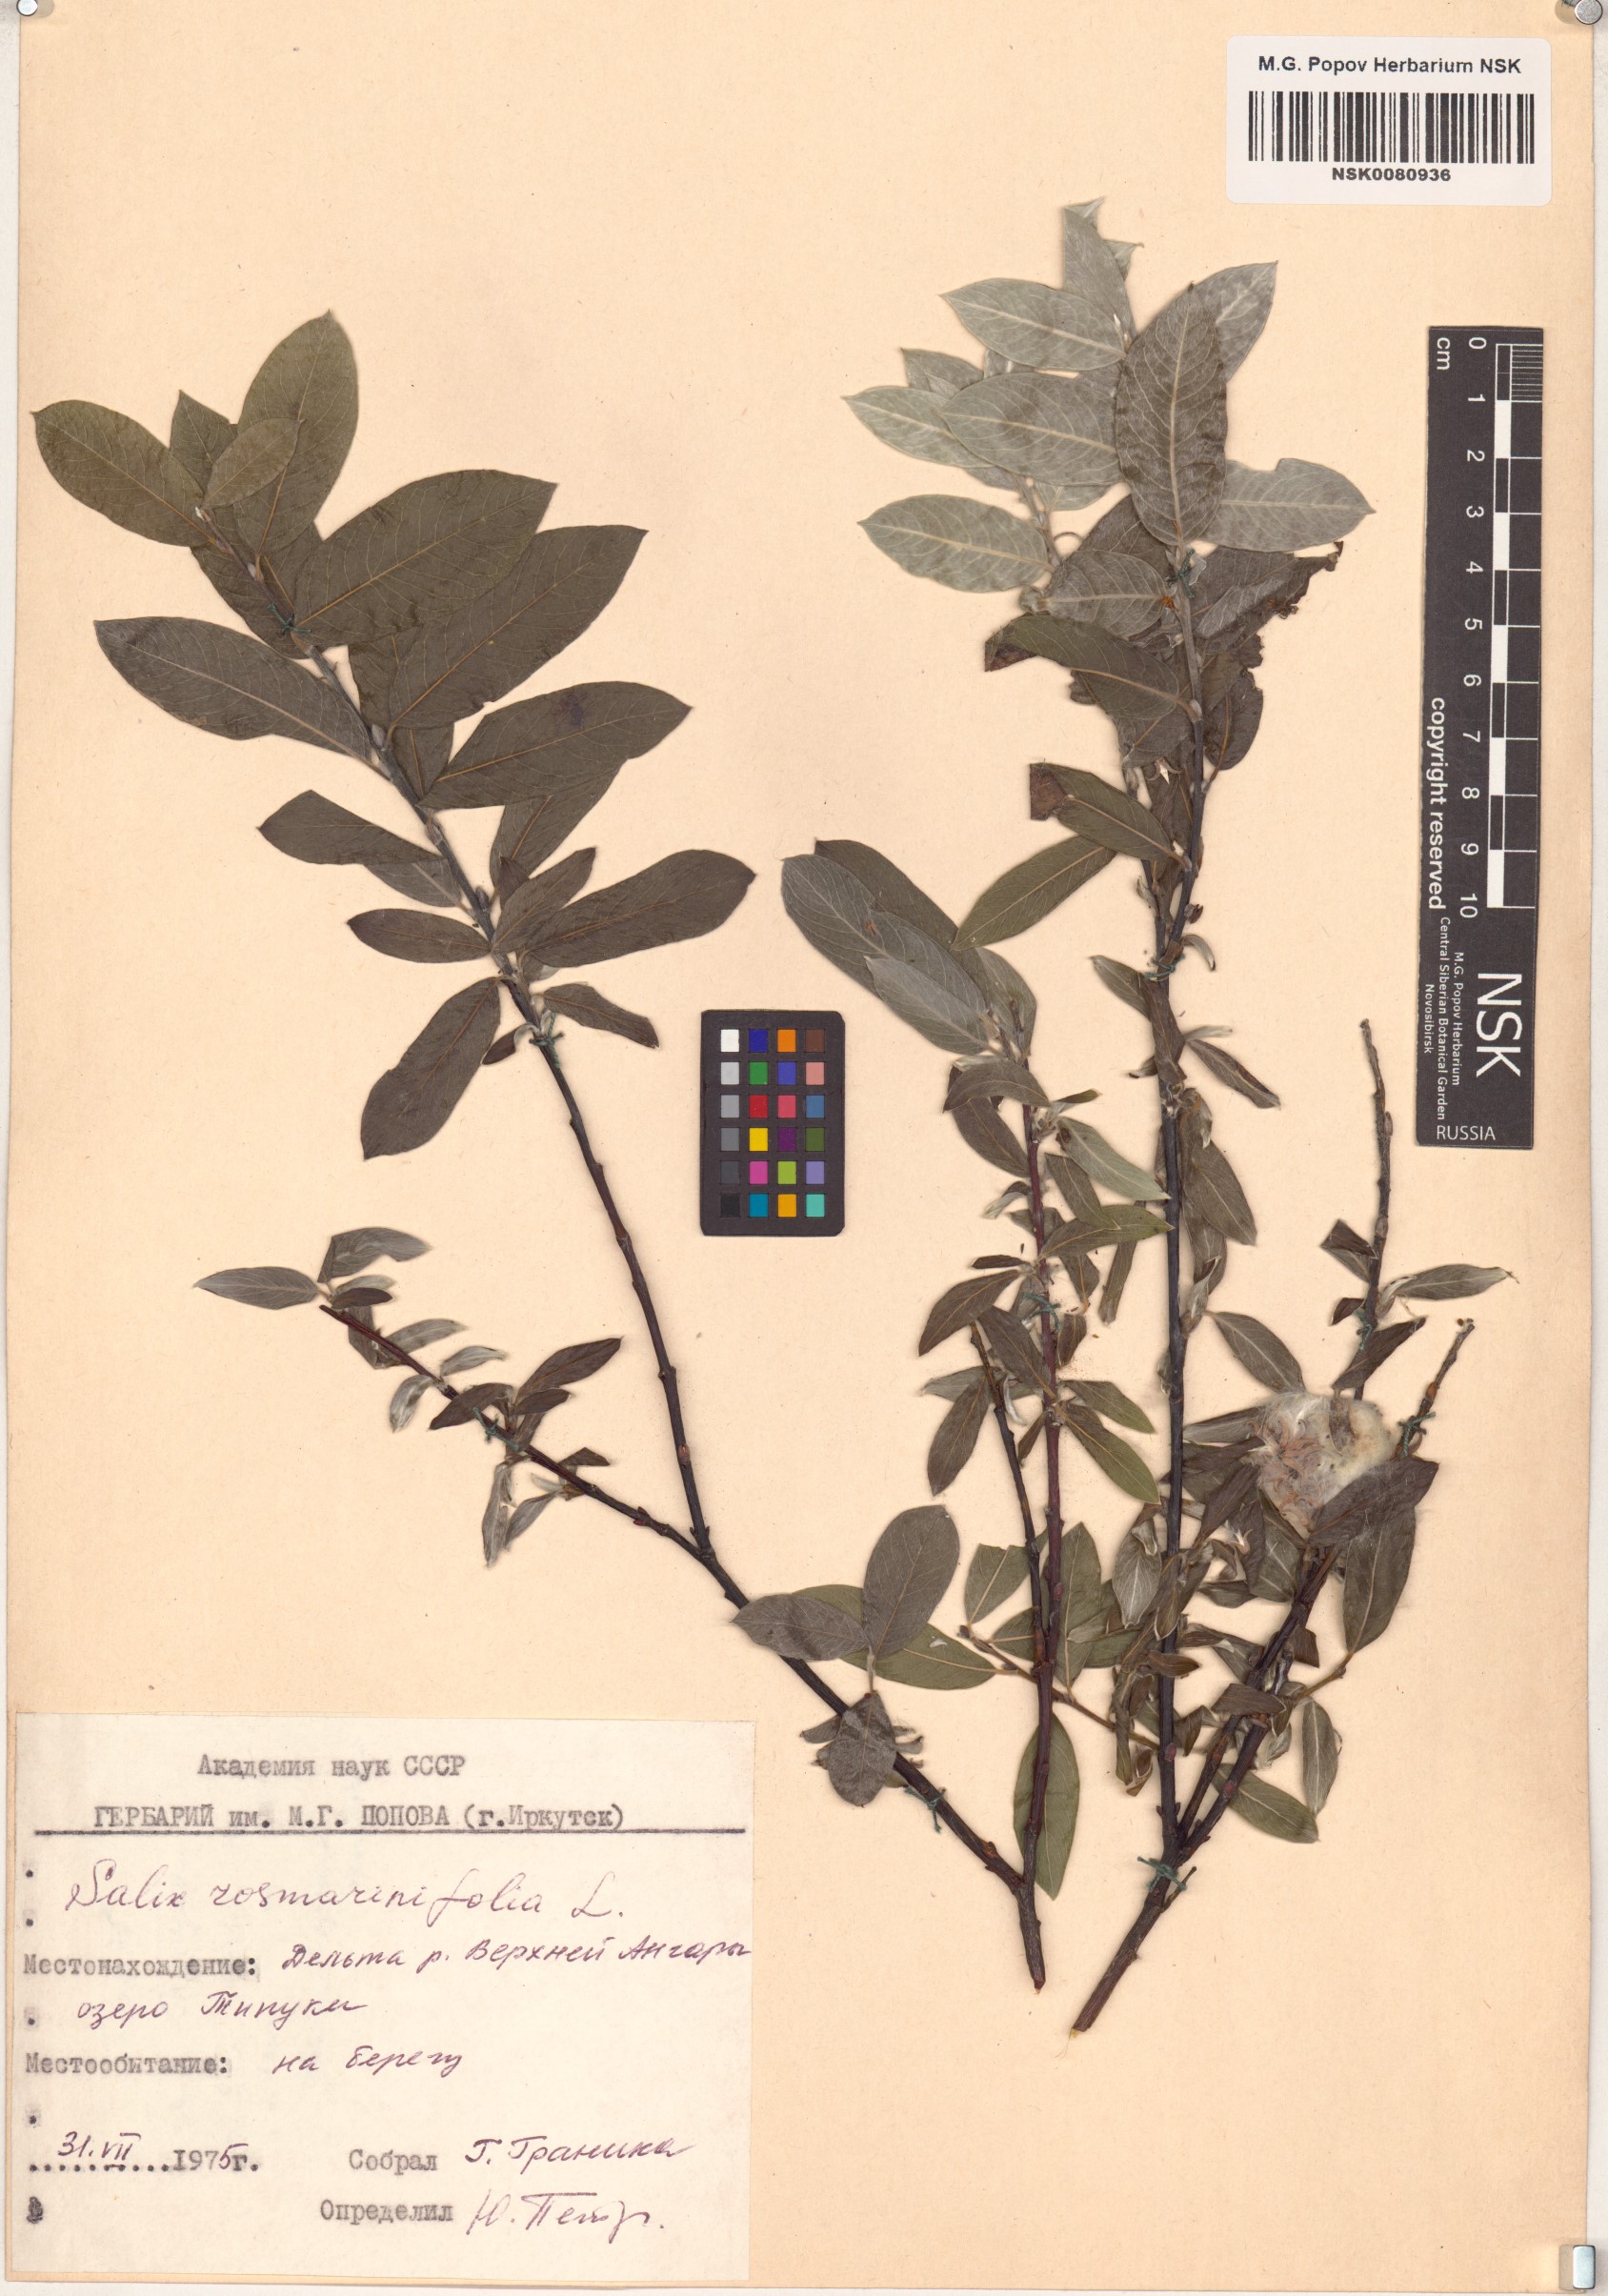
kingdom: Plantae
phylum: Tracheophyta
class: Magnoliopsida
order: Malpighiales
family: Salicaceae
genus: Salix
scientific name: Salix rosmarinifolia
